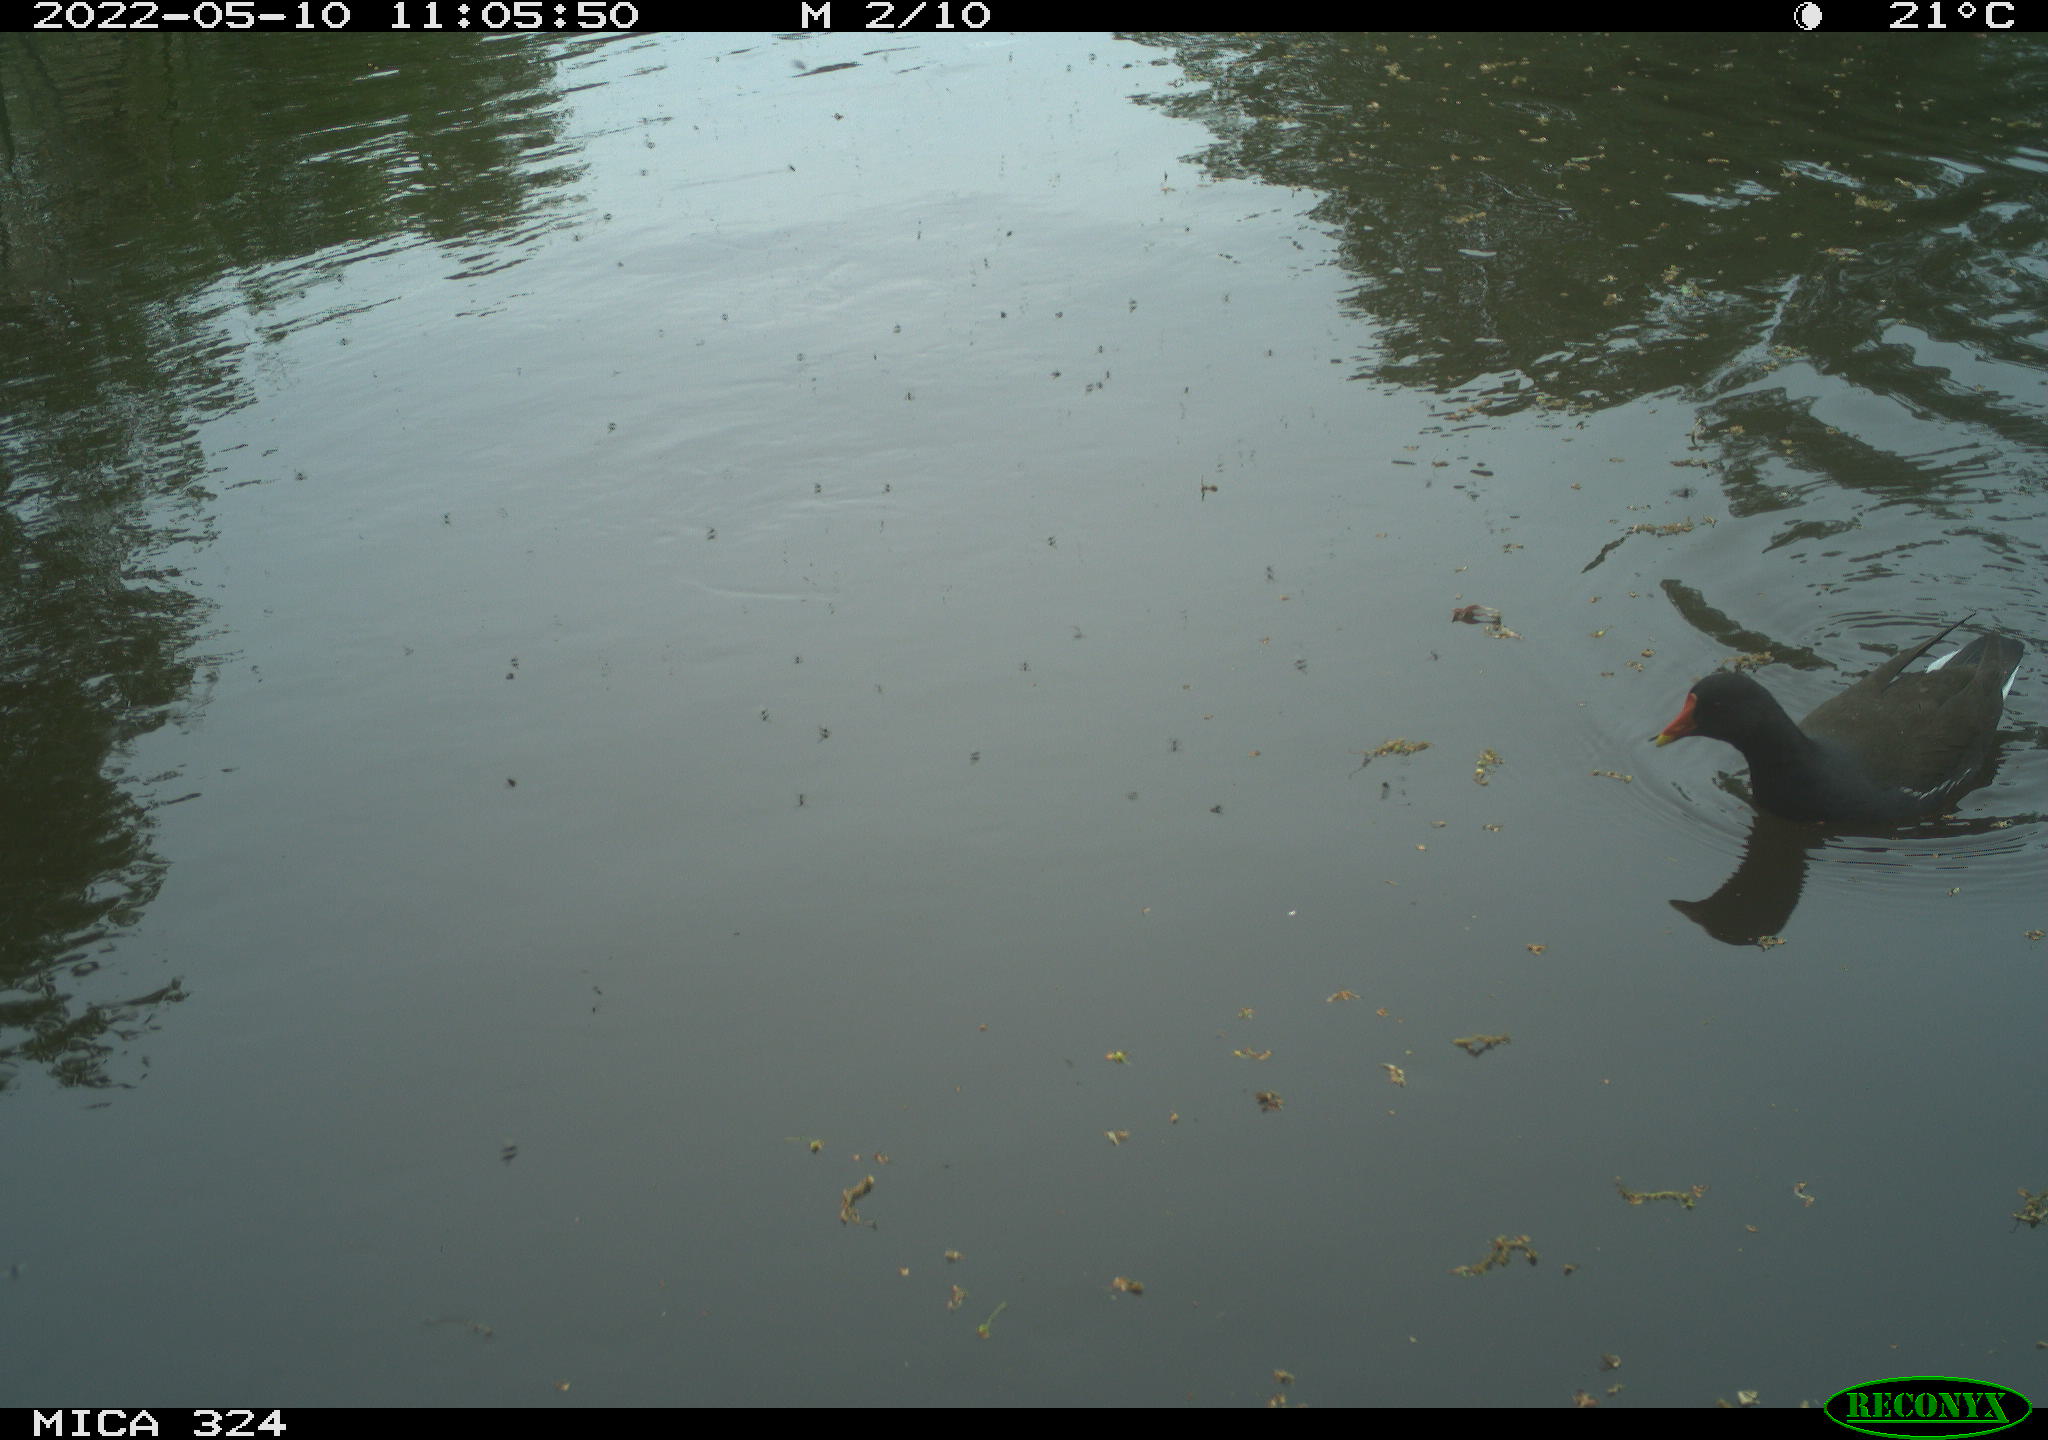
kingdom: Animalia
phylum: Chordata
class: Aves
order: Gruiformes
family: Rallidae
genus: Gallinula
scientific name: Gallinula chloropus
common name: Common moorhen
